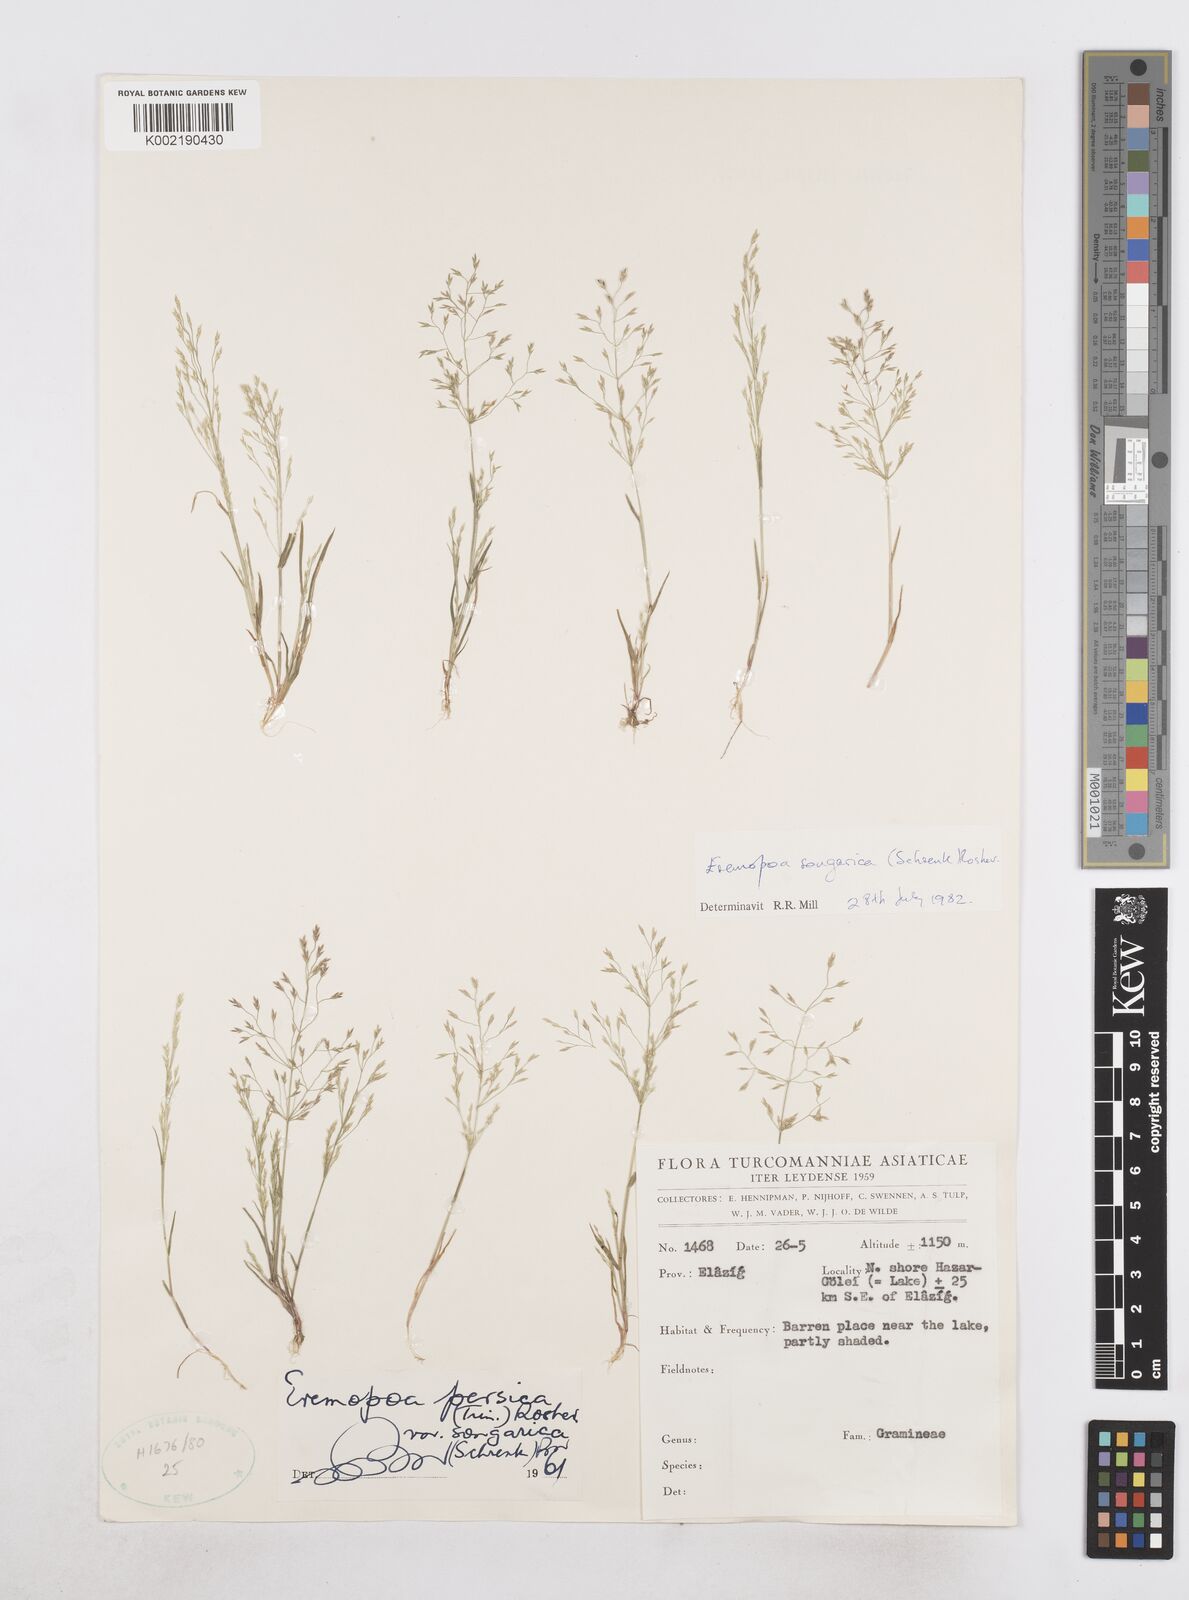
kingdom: Plantae
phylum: Tracheophyta
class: Liliopsida
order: Poales
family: Poaceae
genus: Poa
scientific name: Poa diaphora
